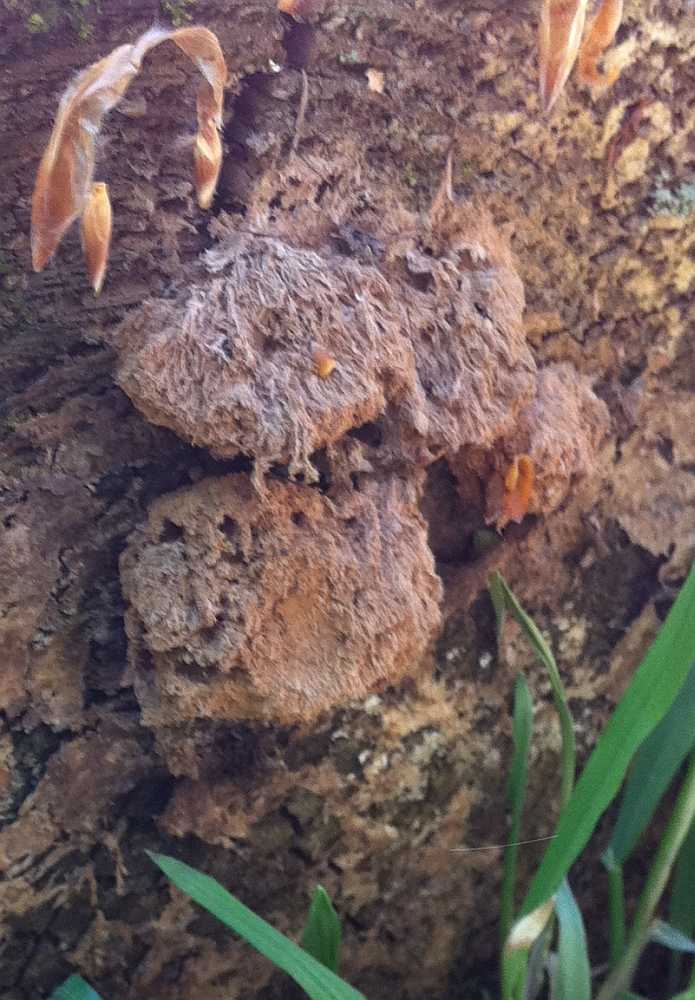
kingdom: Fungi
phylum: Basidiomycota
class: Agaricomycetes
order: Polyporales
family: Dacryobolaceae
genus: Postia
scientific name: Postia ptychogaster
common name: støvende kødporesvamp
